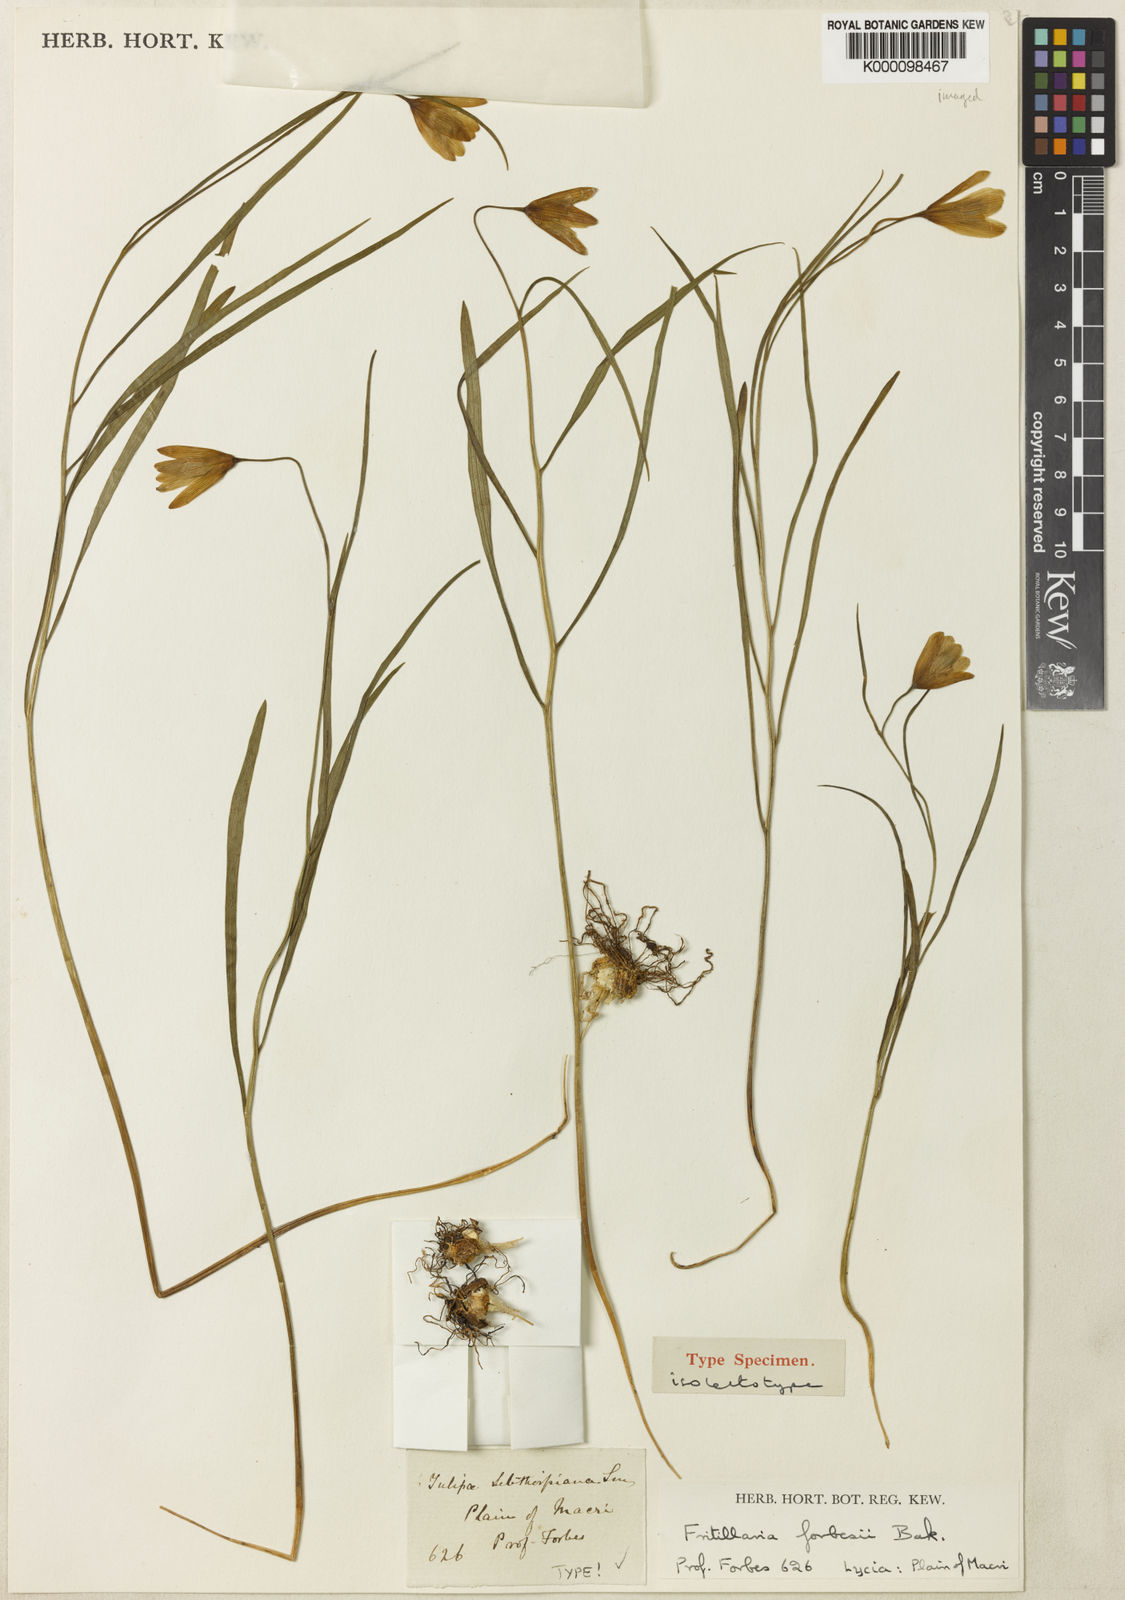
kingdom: Plantae
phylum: Tracheophyta
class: Liliopsida
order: Liliales
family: Liliaceae
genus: Fritillaria
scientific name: Fritillaria forbesii
